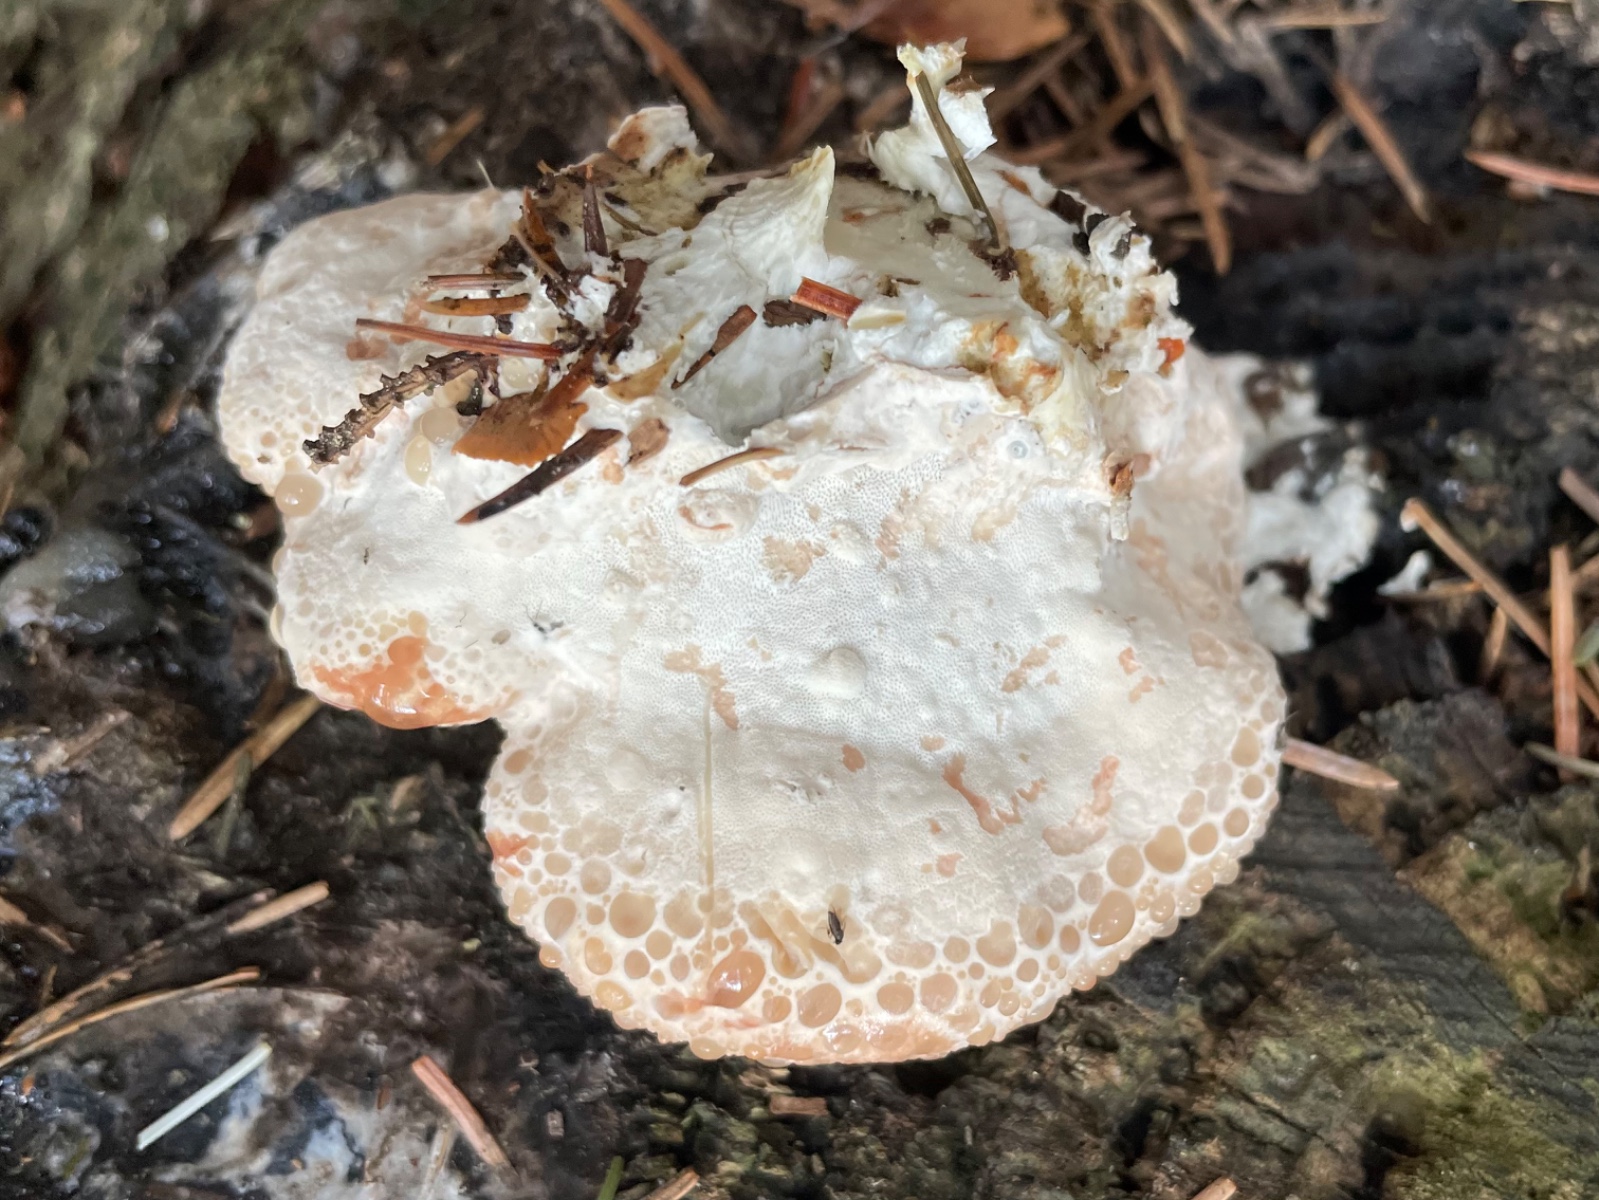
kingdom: Fungi
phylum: Basidiomycota
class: Agaricomycetes
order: Polyporales
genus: Calcipostia
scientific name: Calcipostia guttulata
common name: dråbe-kødporesvamp
